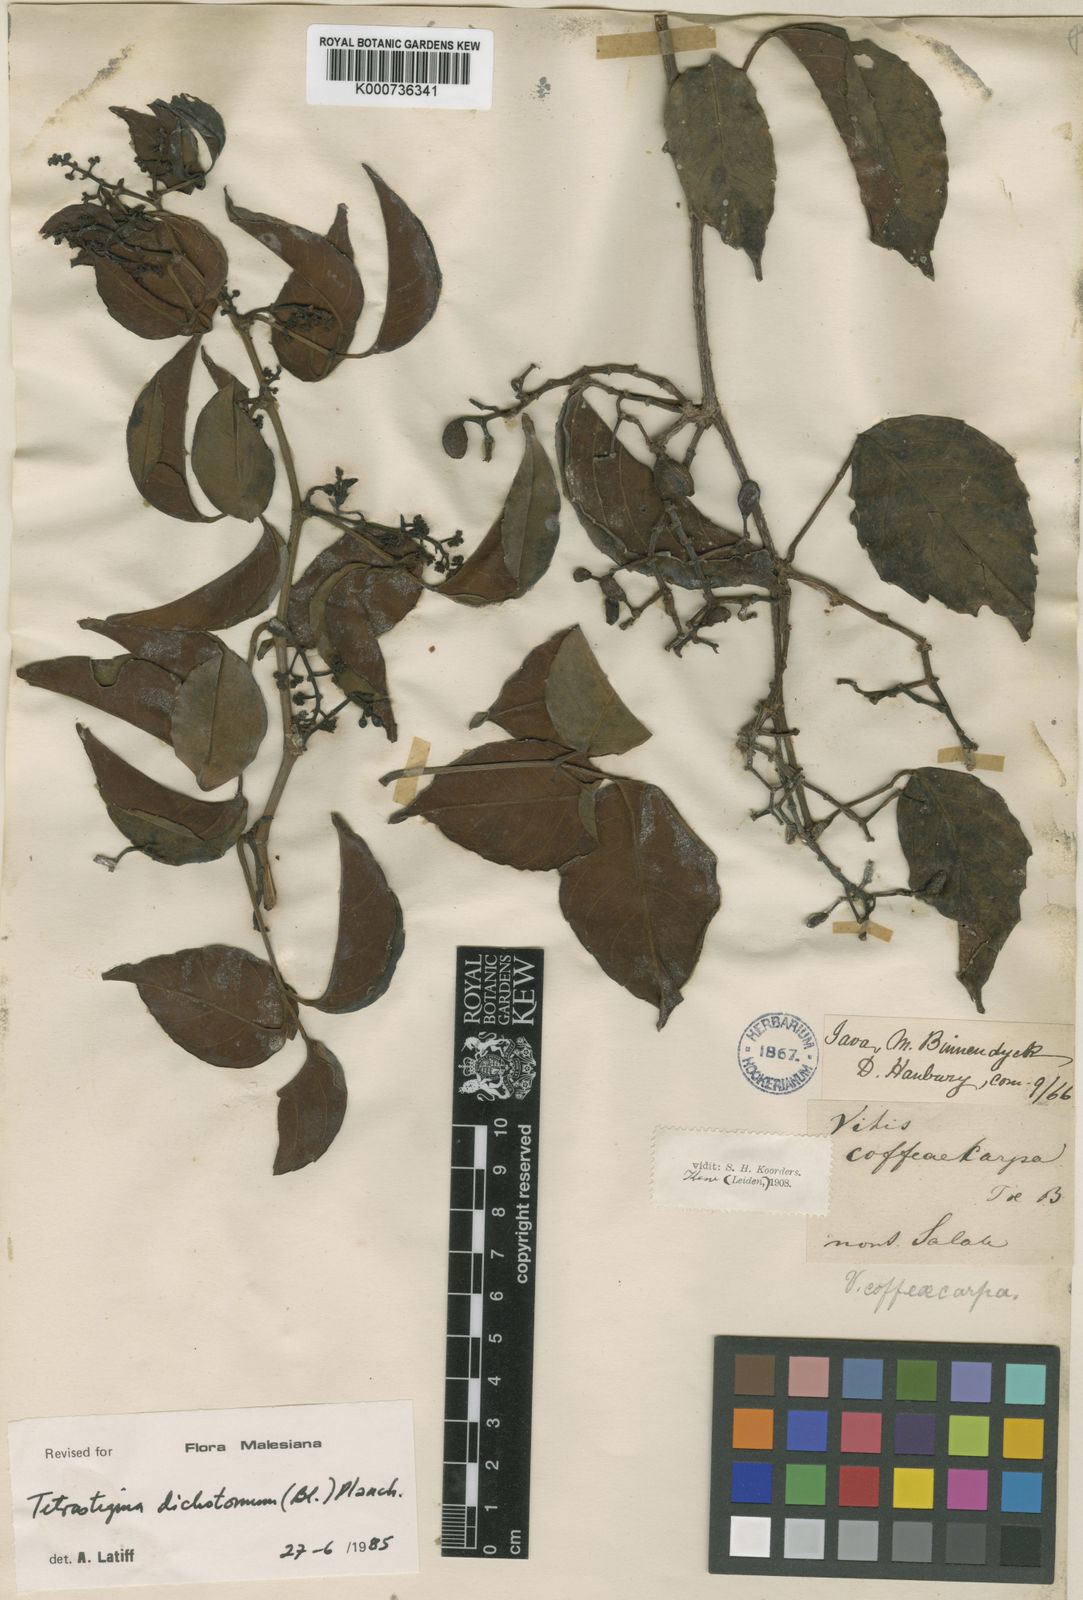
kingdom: Plantae
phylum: Tracheophyta
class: Magnoliopsida
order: Vitales
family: Vitaceae
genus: Tetrastigma
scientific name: Tetrastigma dichotomum
